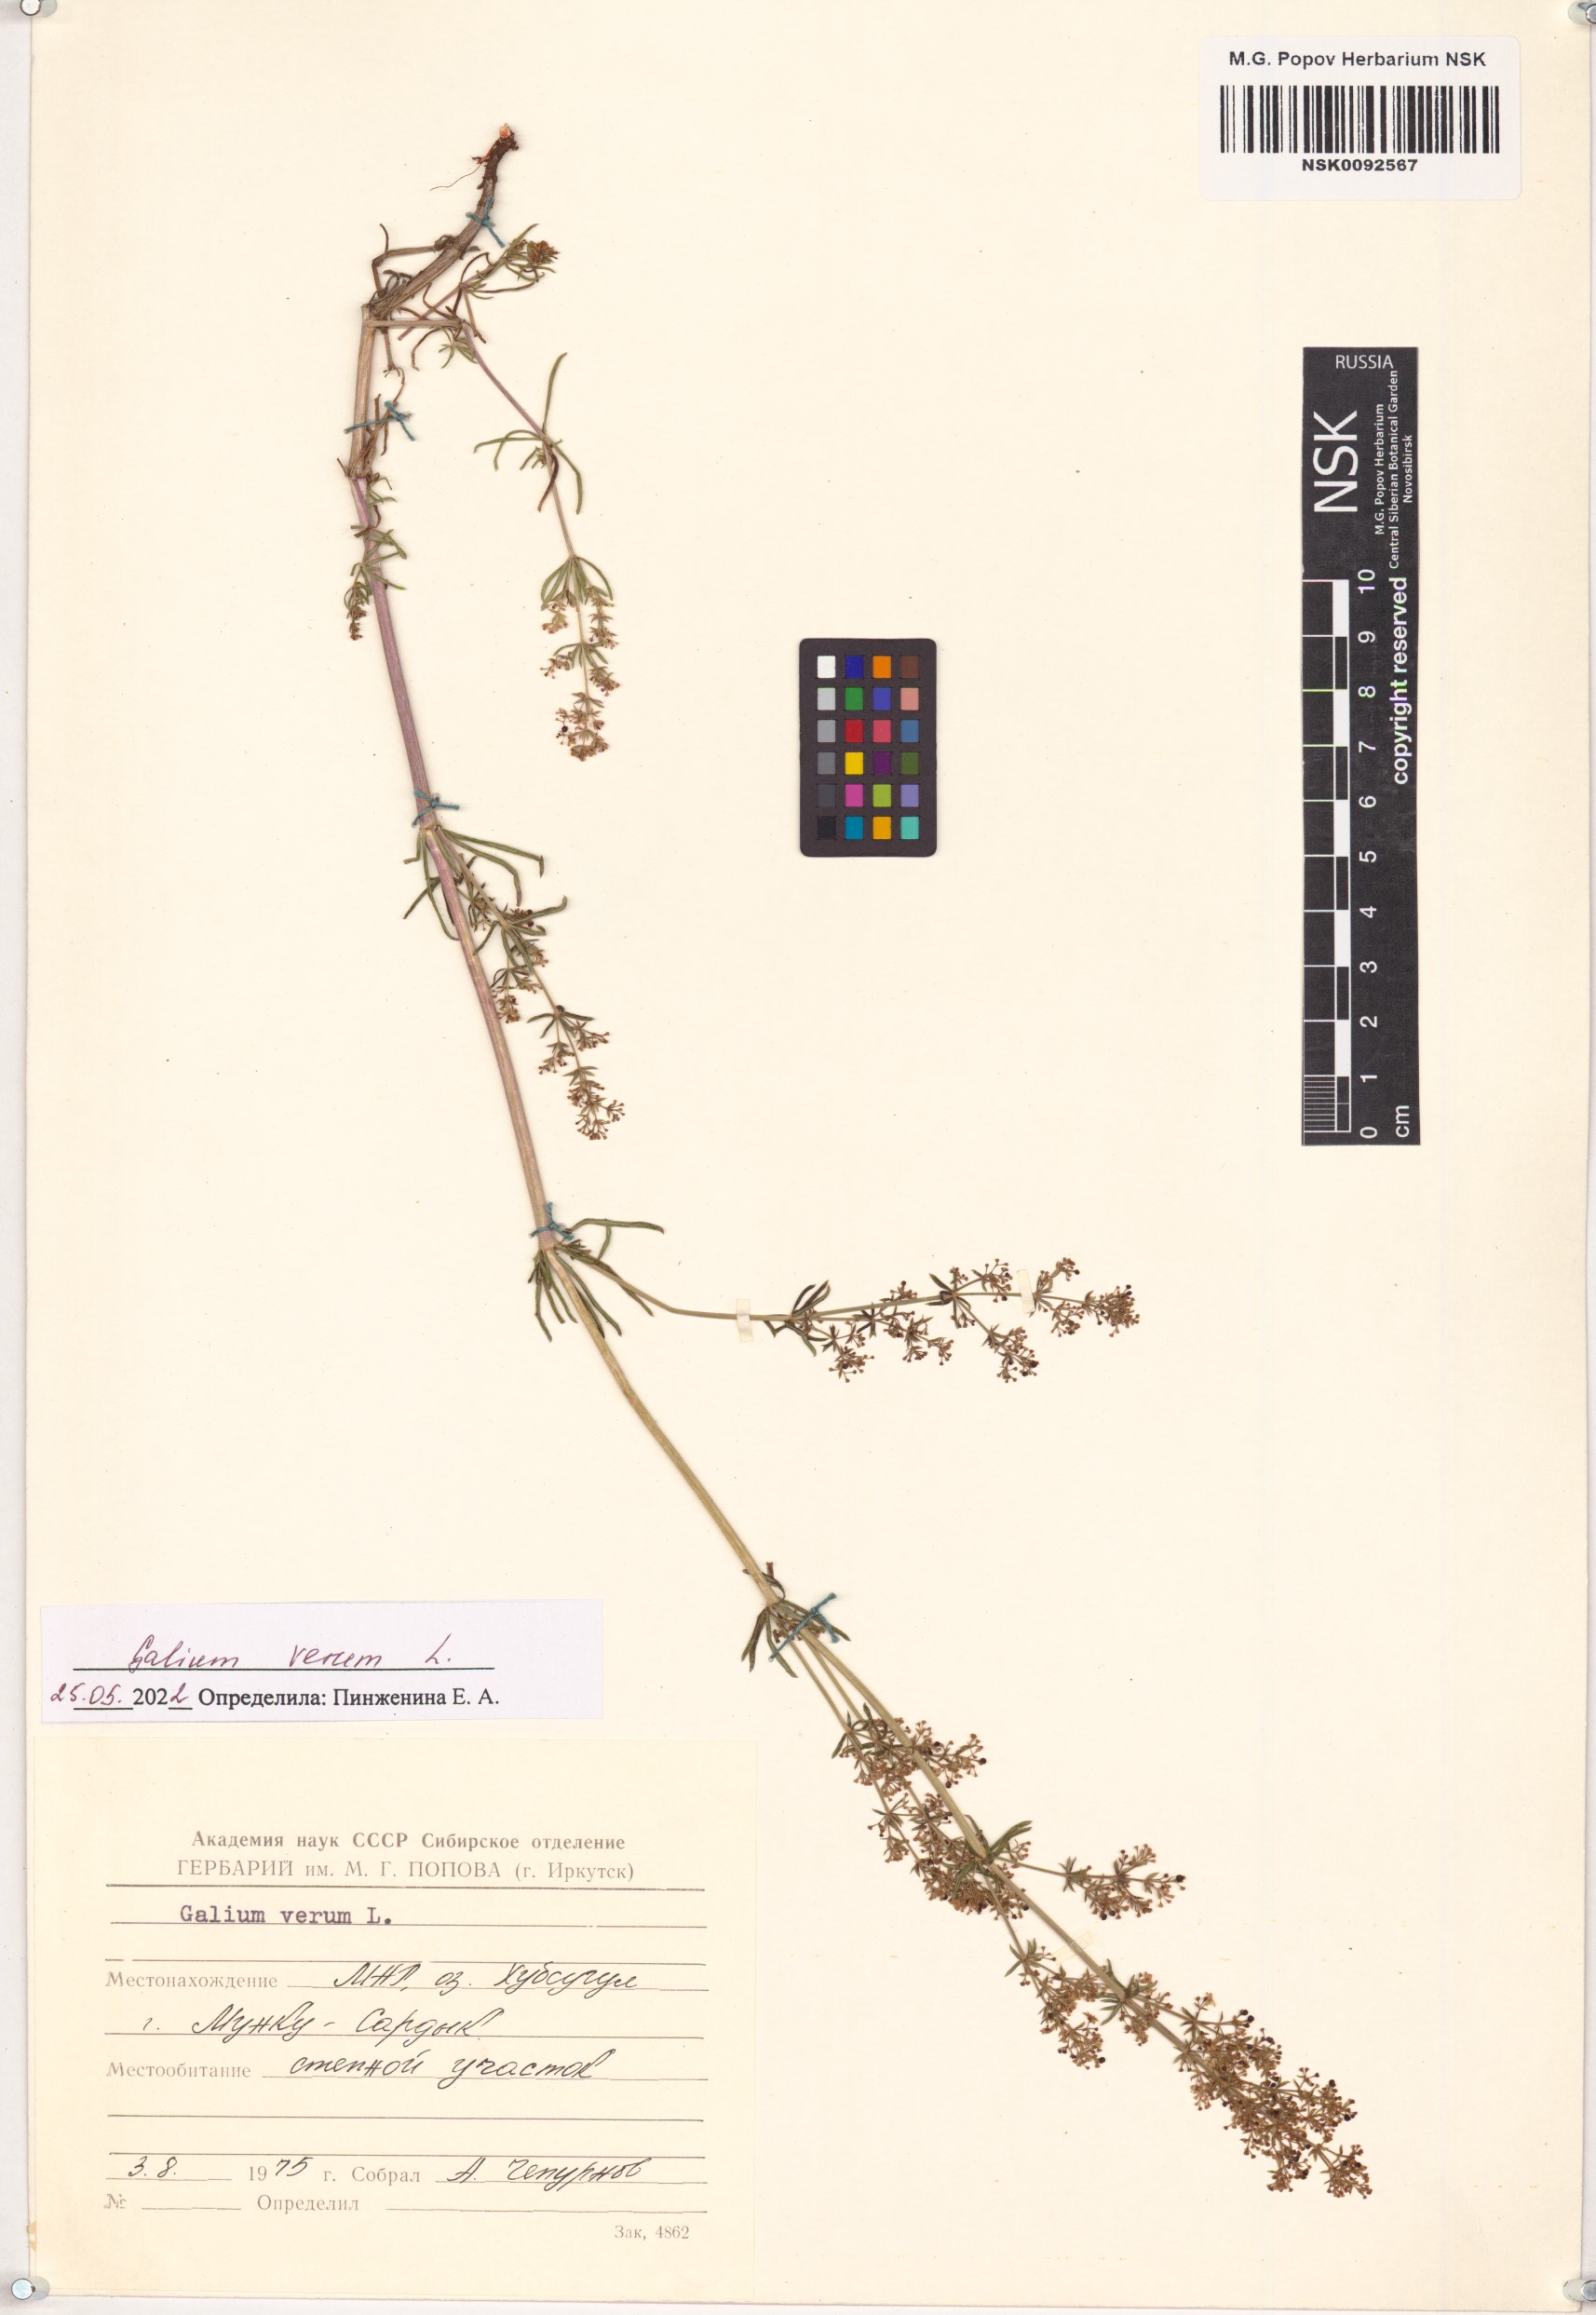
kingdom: Plantae
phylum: Tracheophyta
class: Magnoliopsida
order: Gentianales
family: Rubiaceae
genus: Galium
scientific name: Galium verum
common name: Lady's bedstraw
